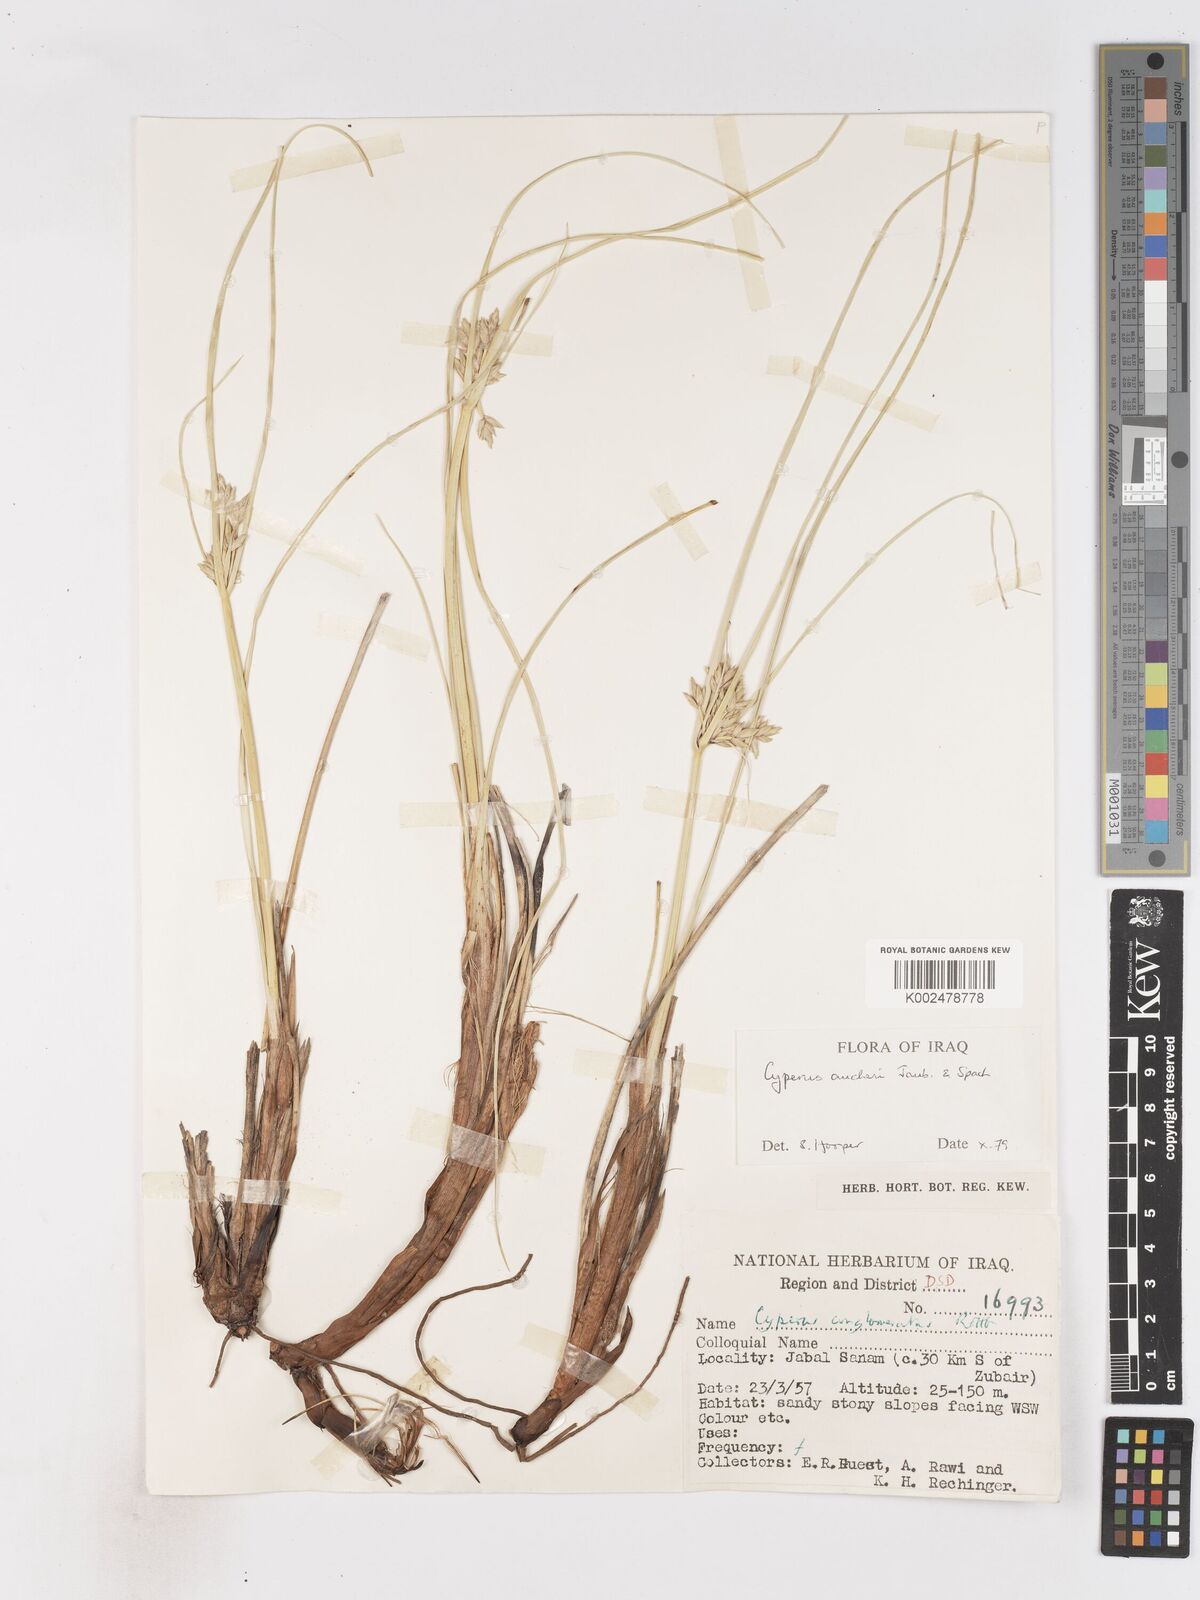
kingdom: Plantae
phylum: Tracheophyta
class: Liliopsida
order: Poales
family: Cyperaceae
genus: Cyperus
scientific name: Cyperus aucheri
